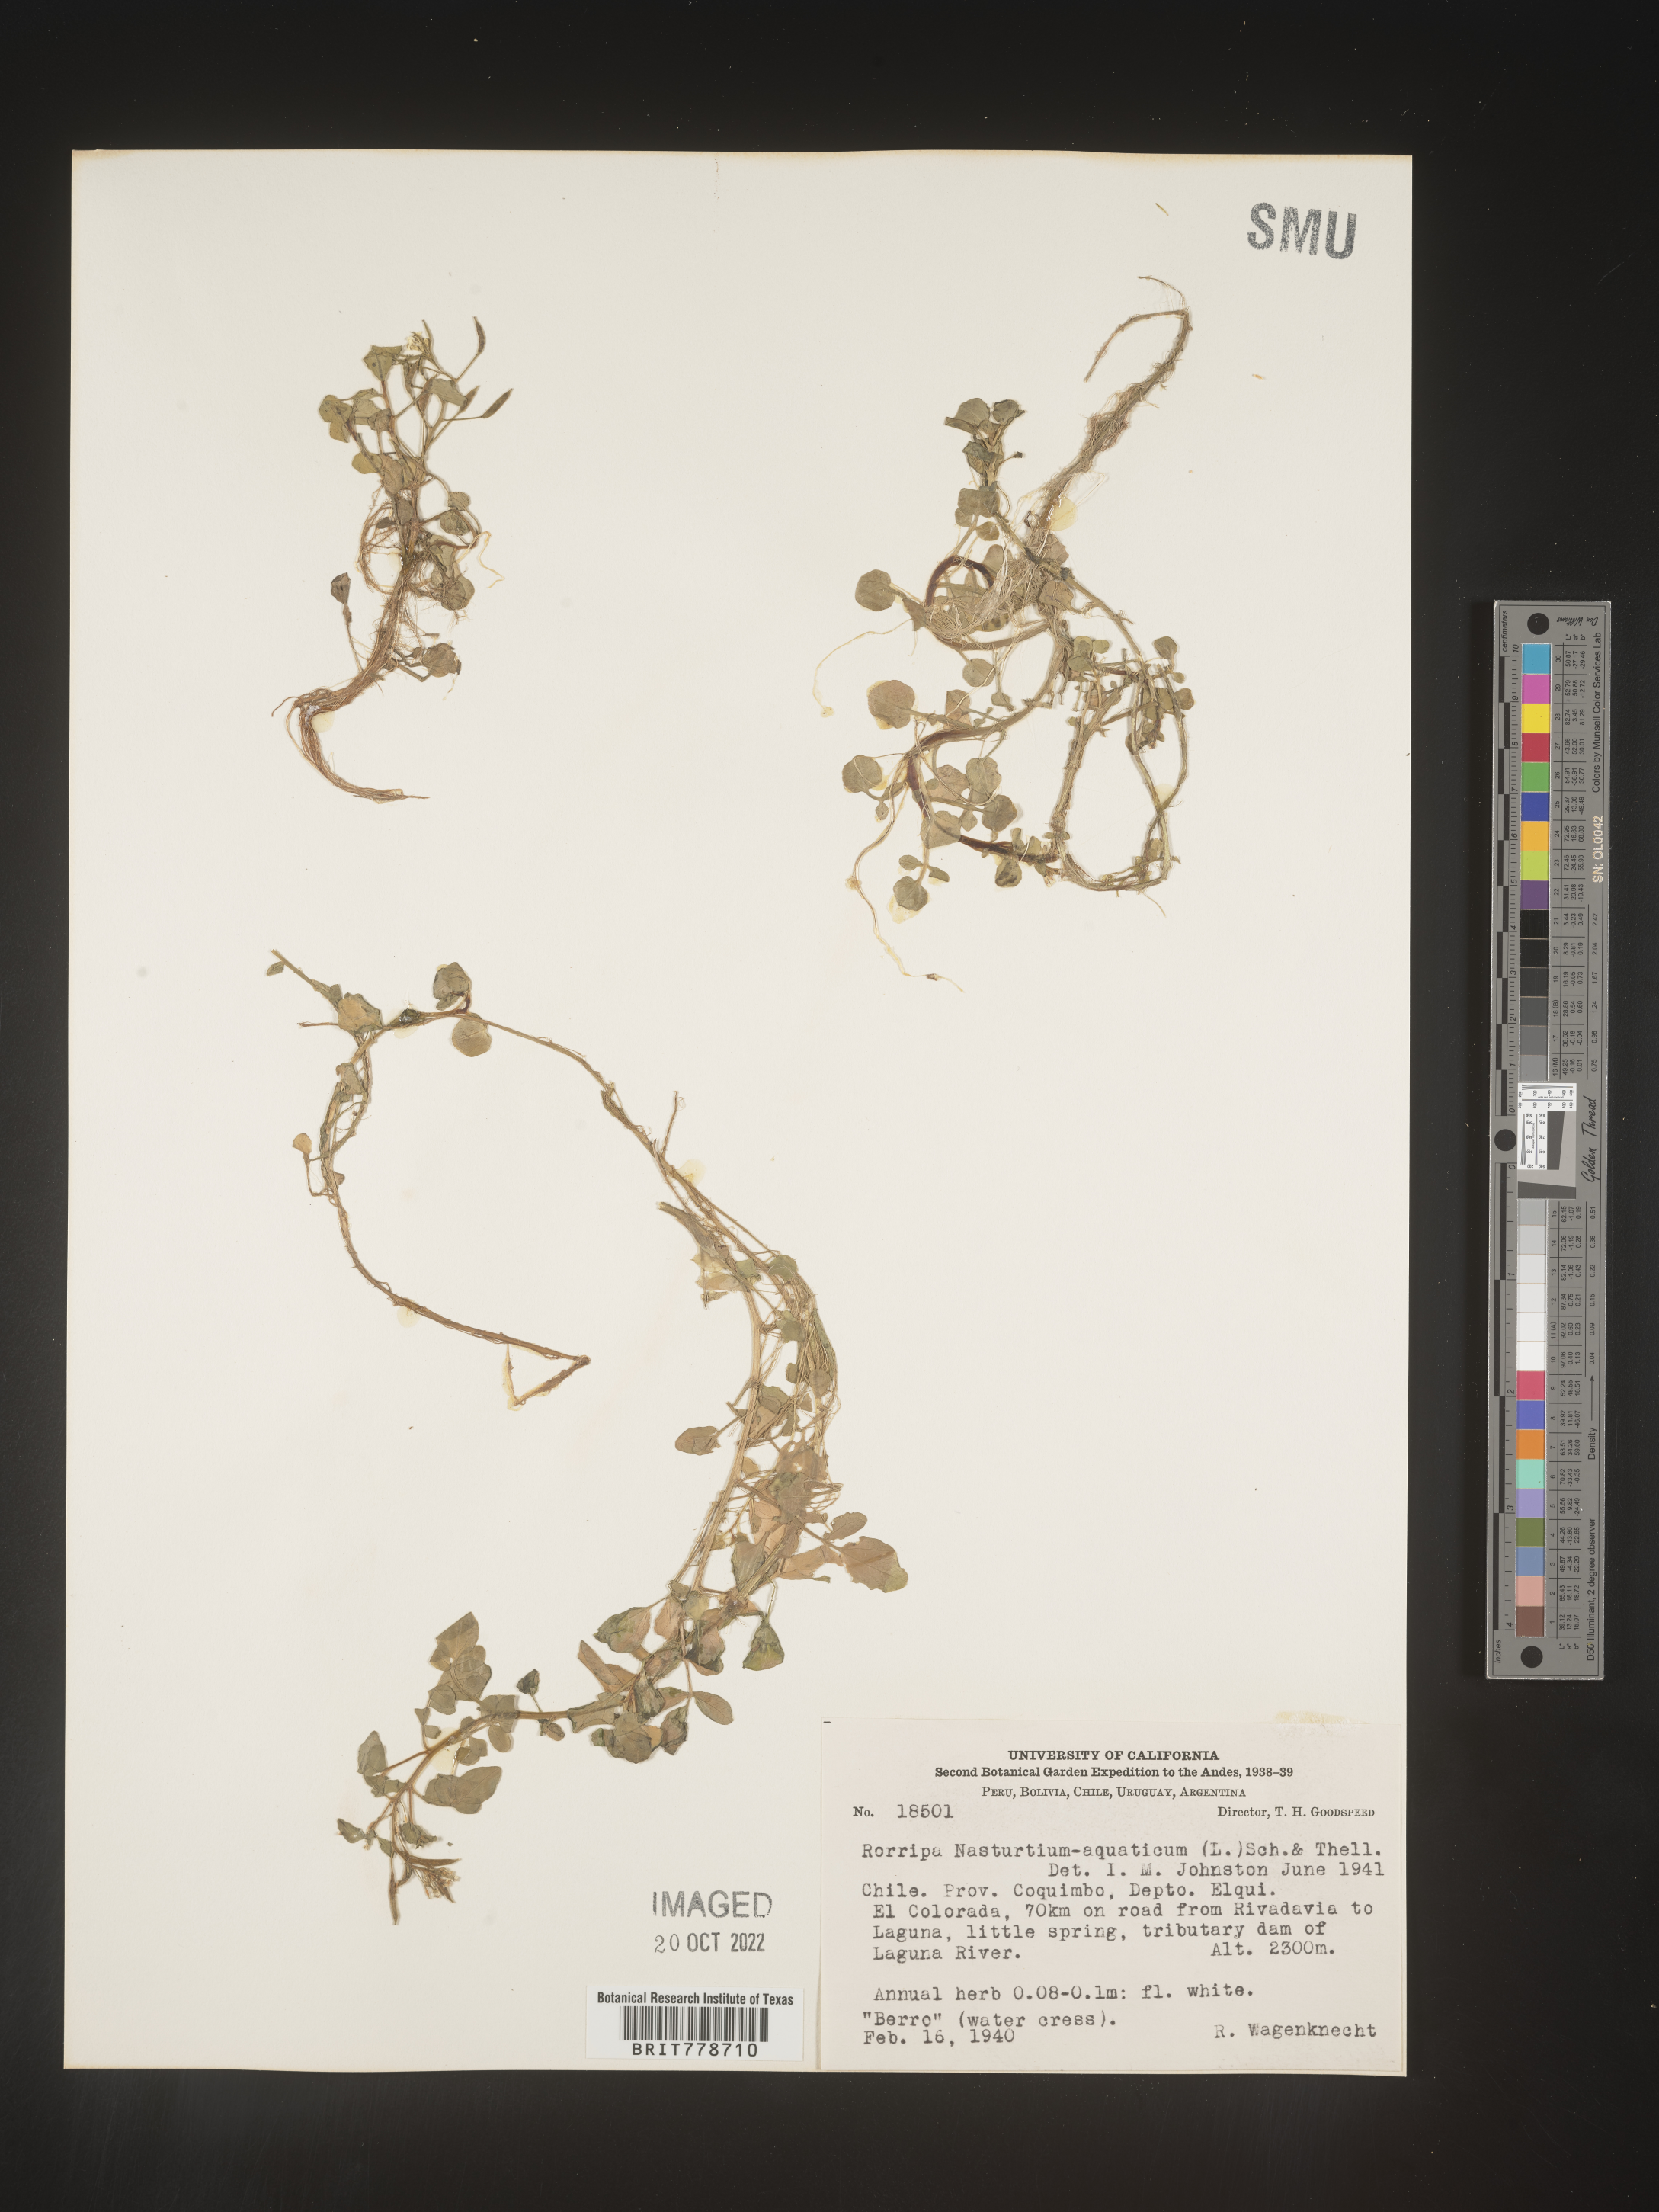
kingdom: Plantae
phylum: Tracheophyta
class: Magnoliopsida
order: Brassicales
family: Brassicaceae
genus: Rorippa
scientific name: Rorippa
